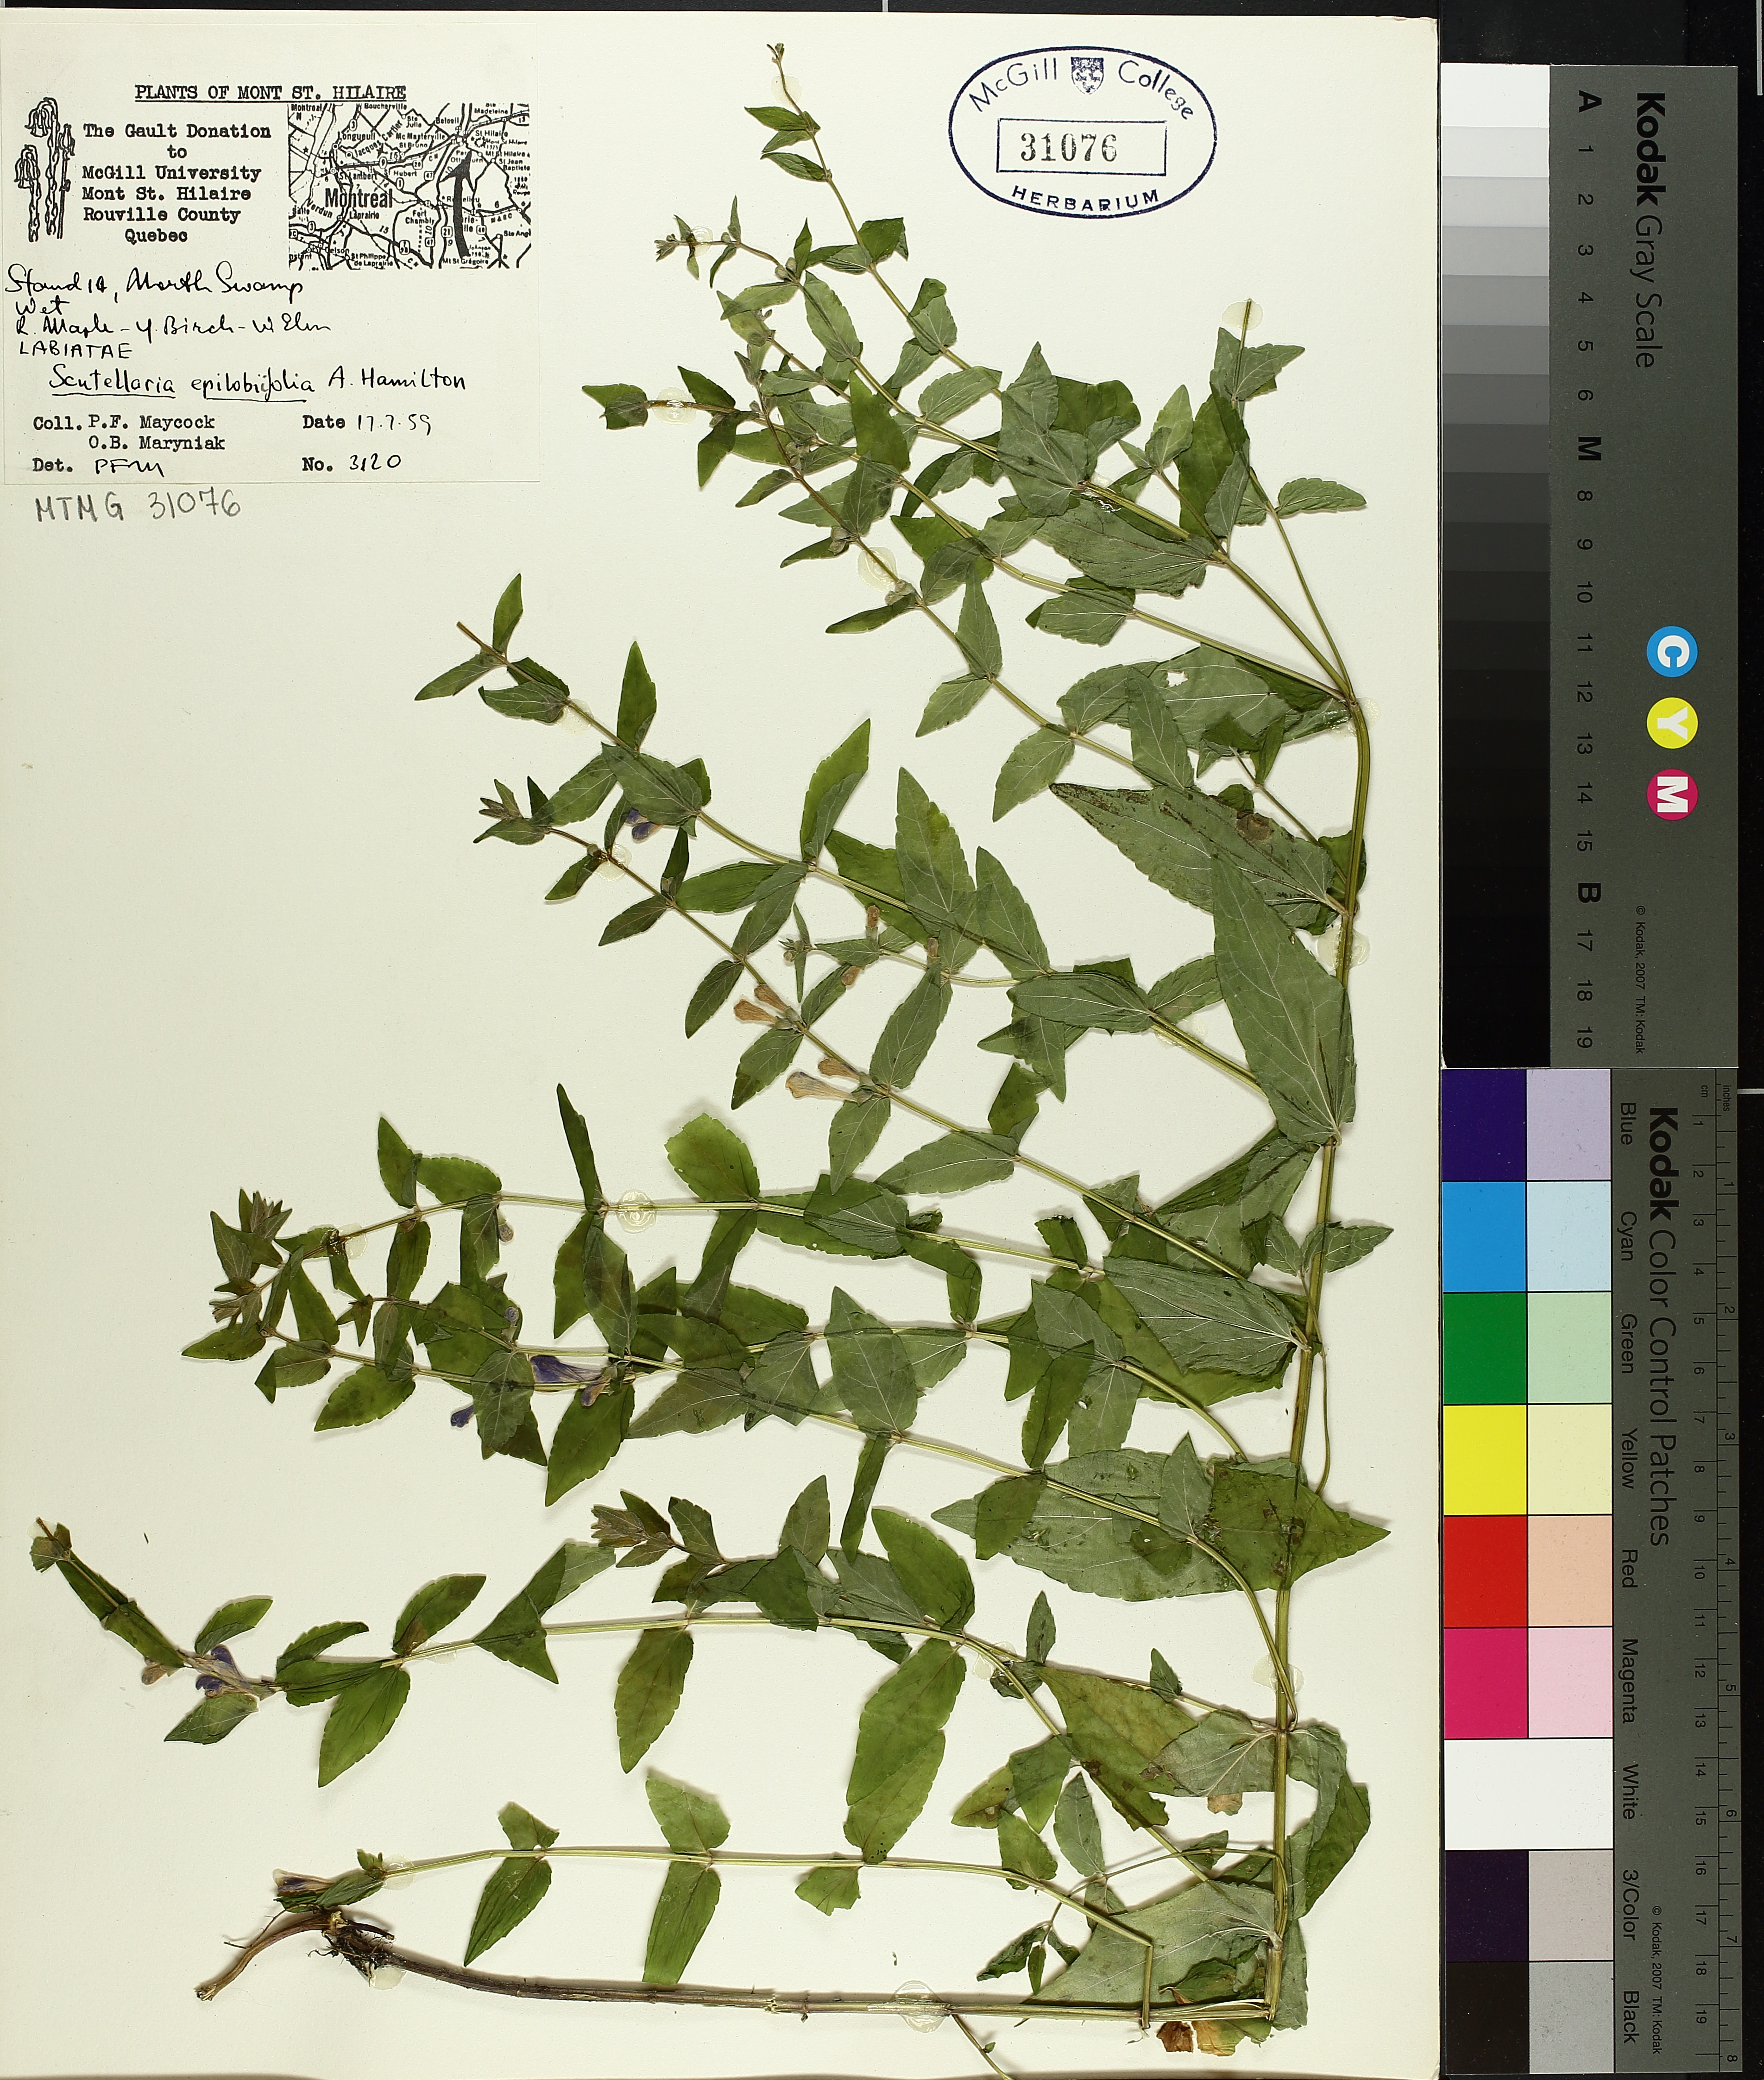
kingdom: Plantae
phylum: Tracheophyta
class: Magnoliopsida
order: Lamiales
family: Lamiaceae
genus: Scutellaria
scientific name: Scutellaria galericulata
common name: Skullcap
